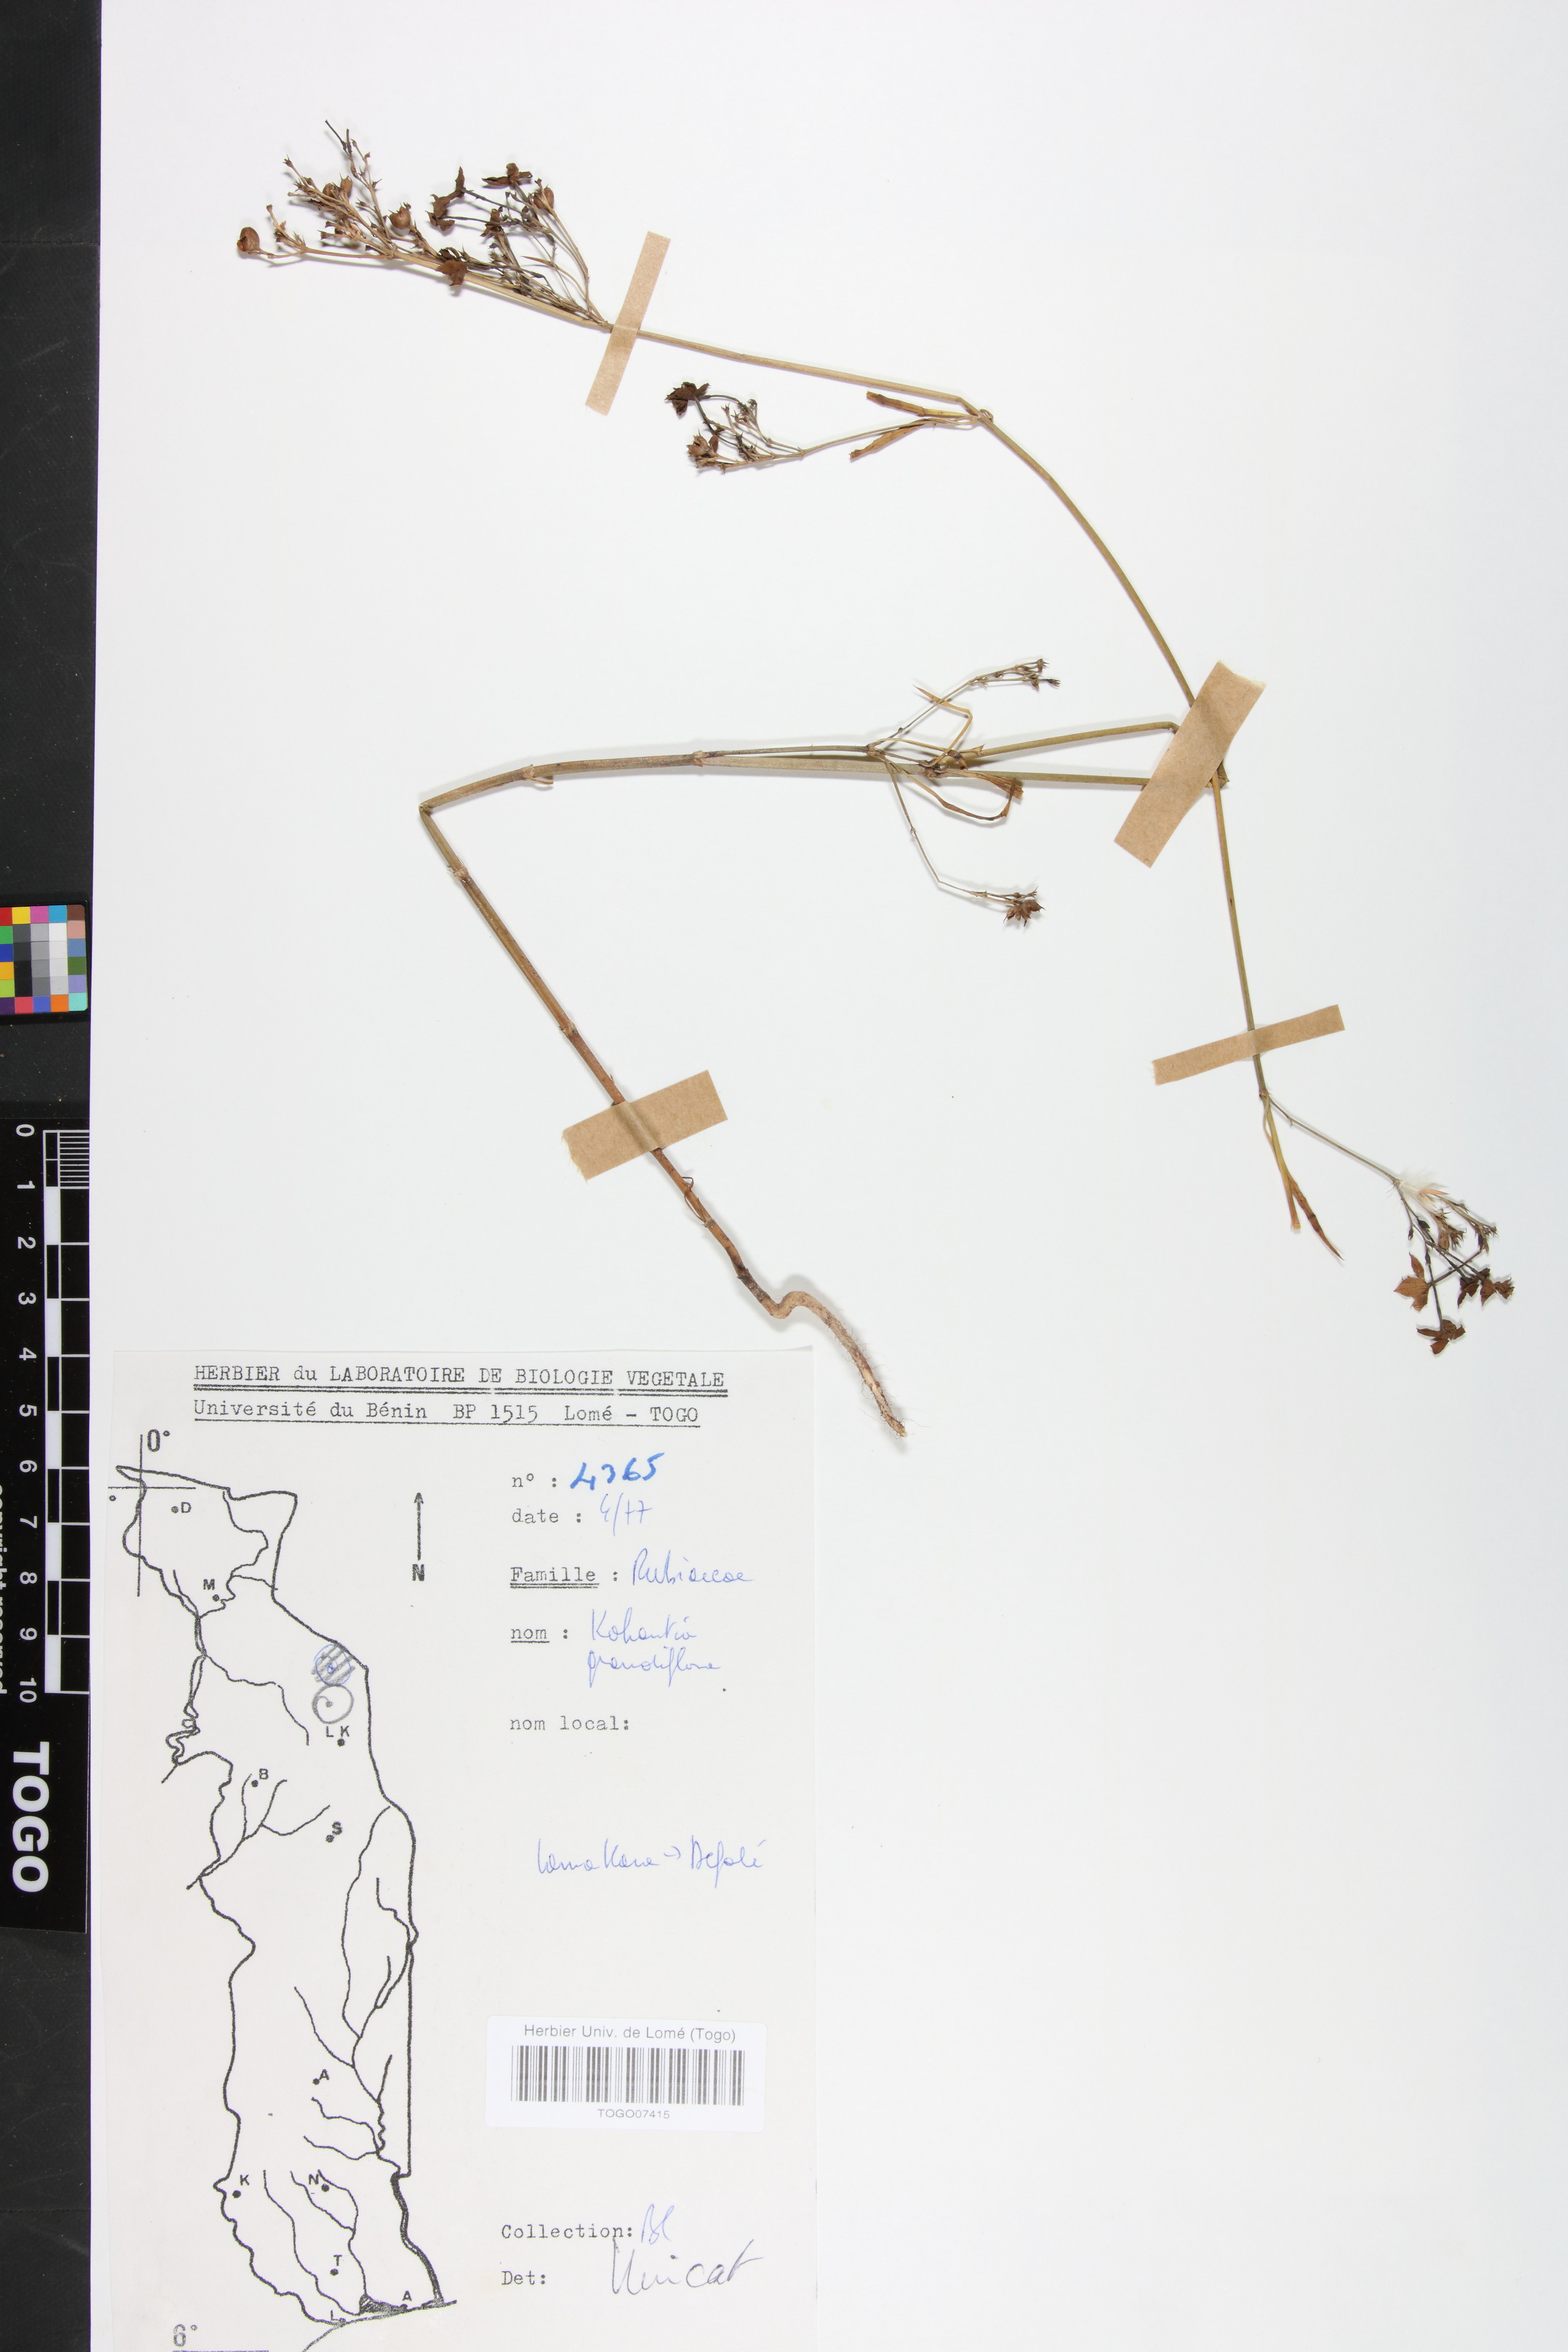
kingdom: Plantae
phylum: Tracheophyta
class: Magnoliopsida
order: Gentianales
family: Rubiaceae
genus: Kohautia
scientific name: Kohautia grandiflora
